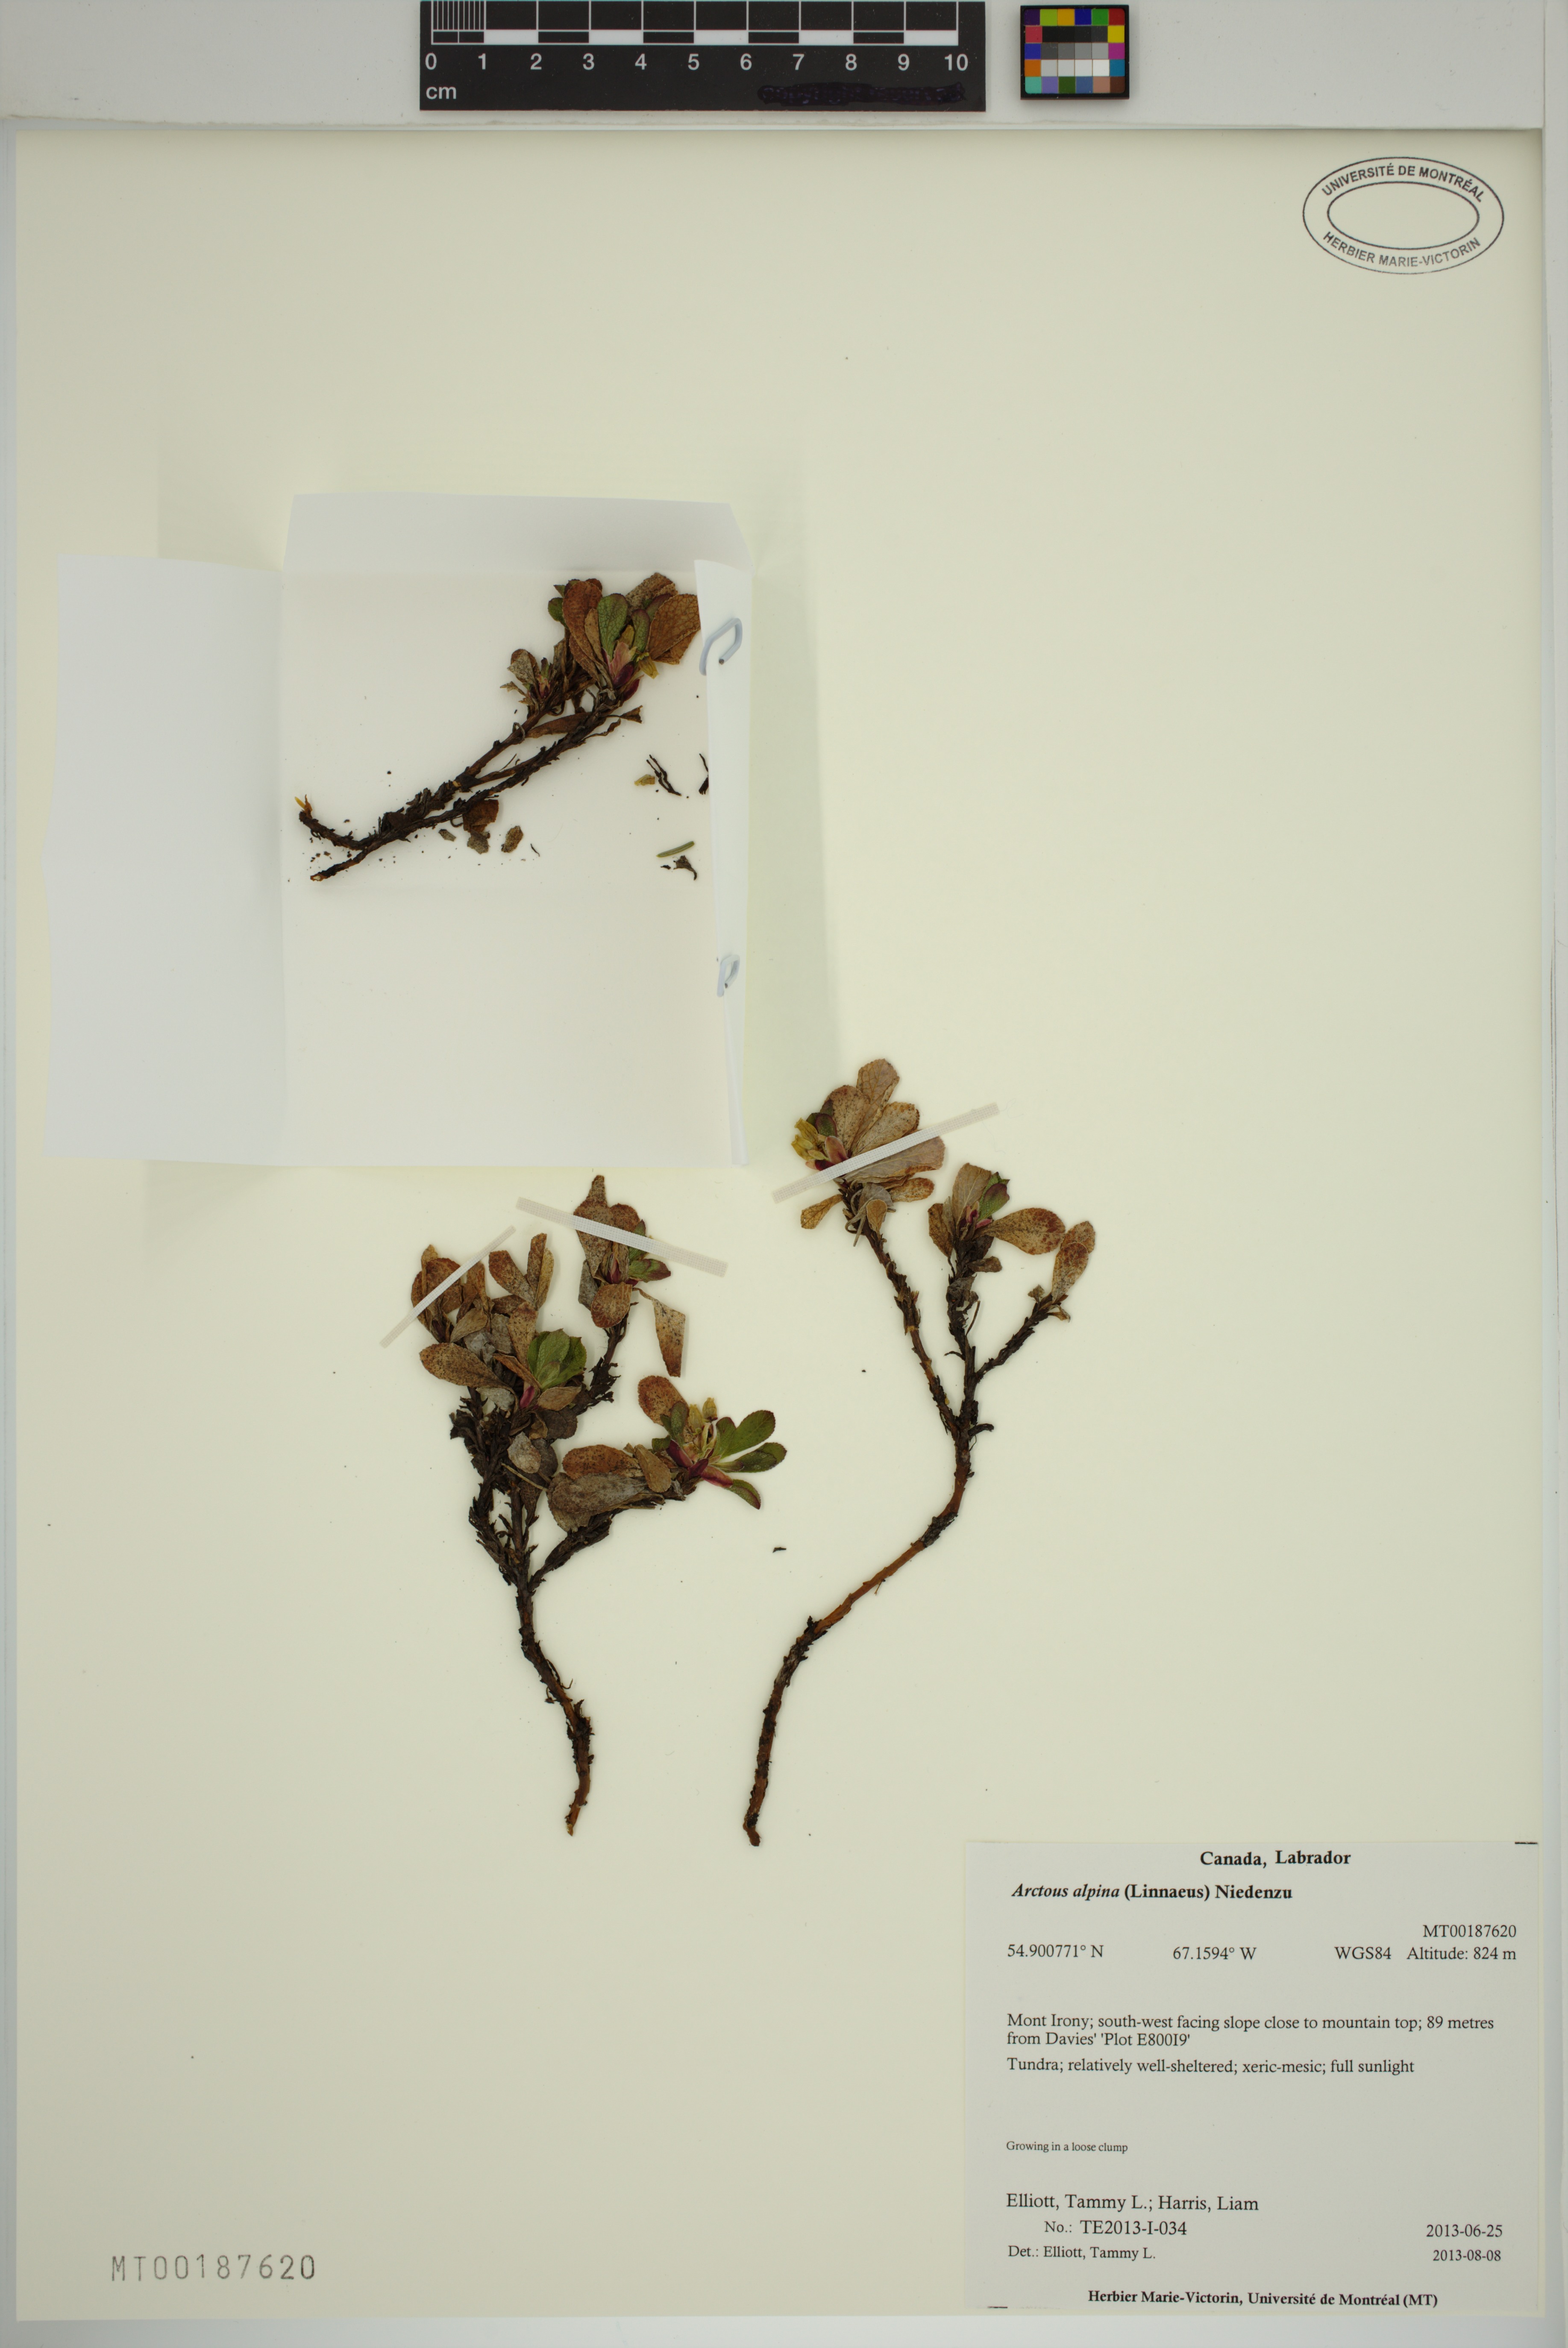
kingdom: Plantae
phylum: Tracheophyta
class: Magnoliopsida
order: Ericales
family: Ericaceae
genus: Arctostaphylos
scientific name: Arctostaphylos alpinus
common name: Alpine bearberry
